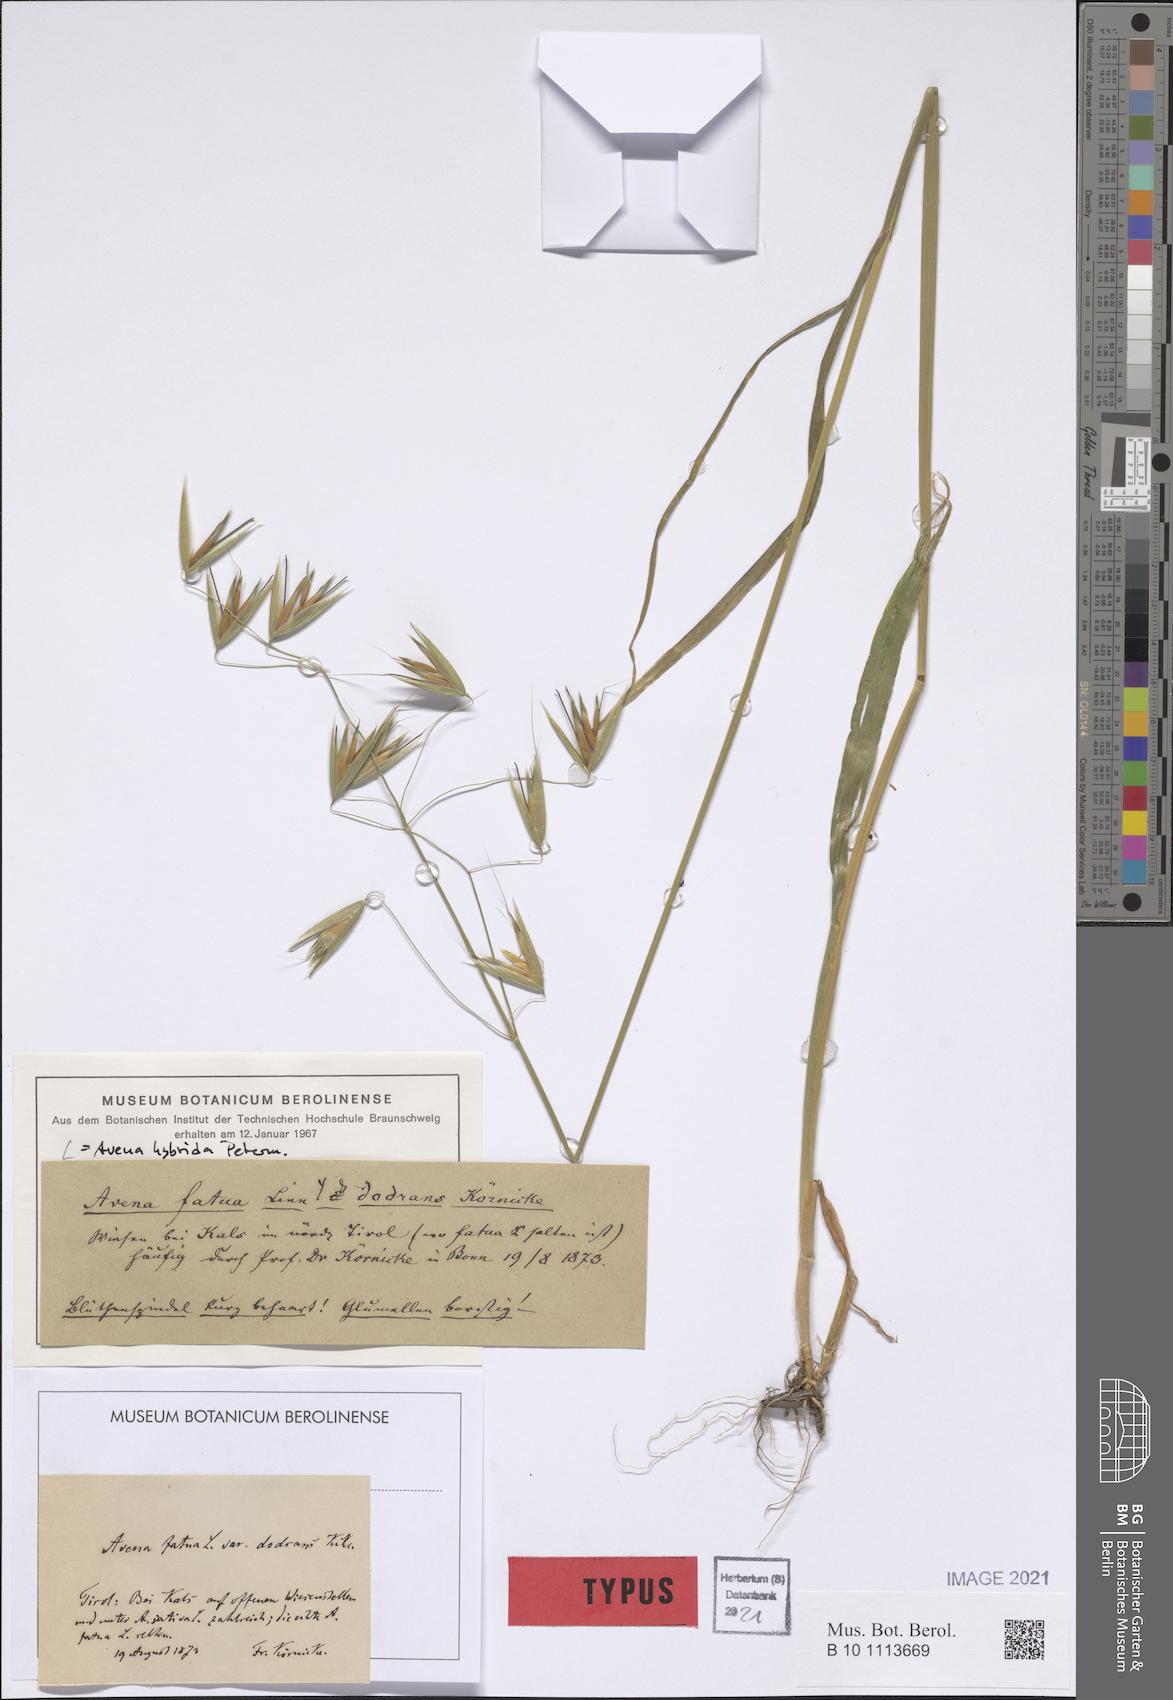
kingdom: Plantae
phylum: Tracheophyta
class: Liliopsida
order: Poales
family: Poaceae
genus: Avena
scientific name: Avena hybrida
